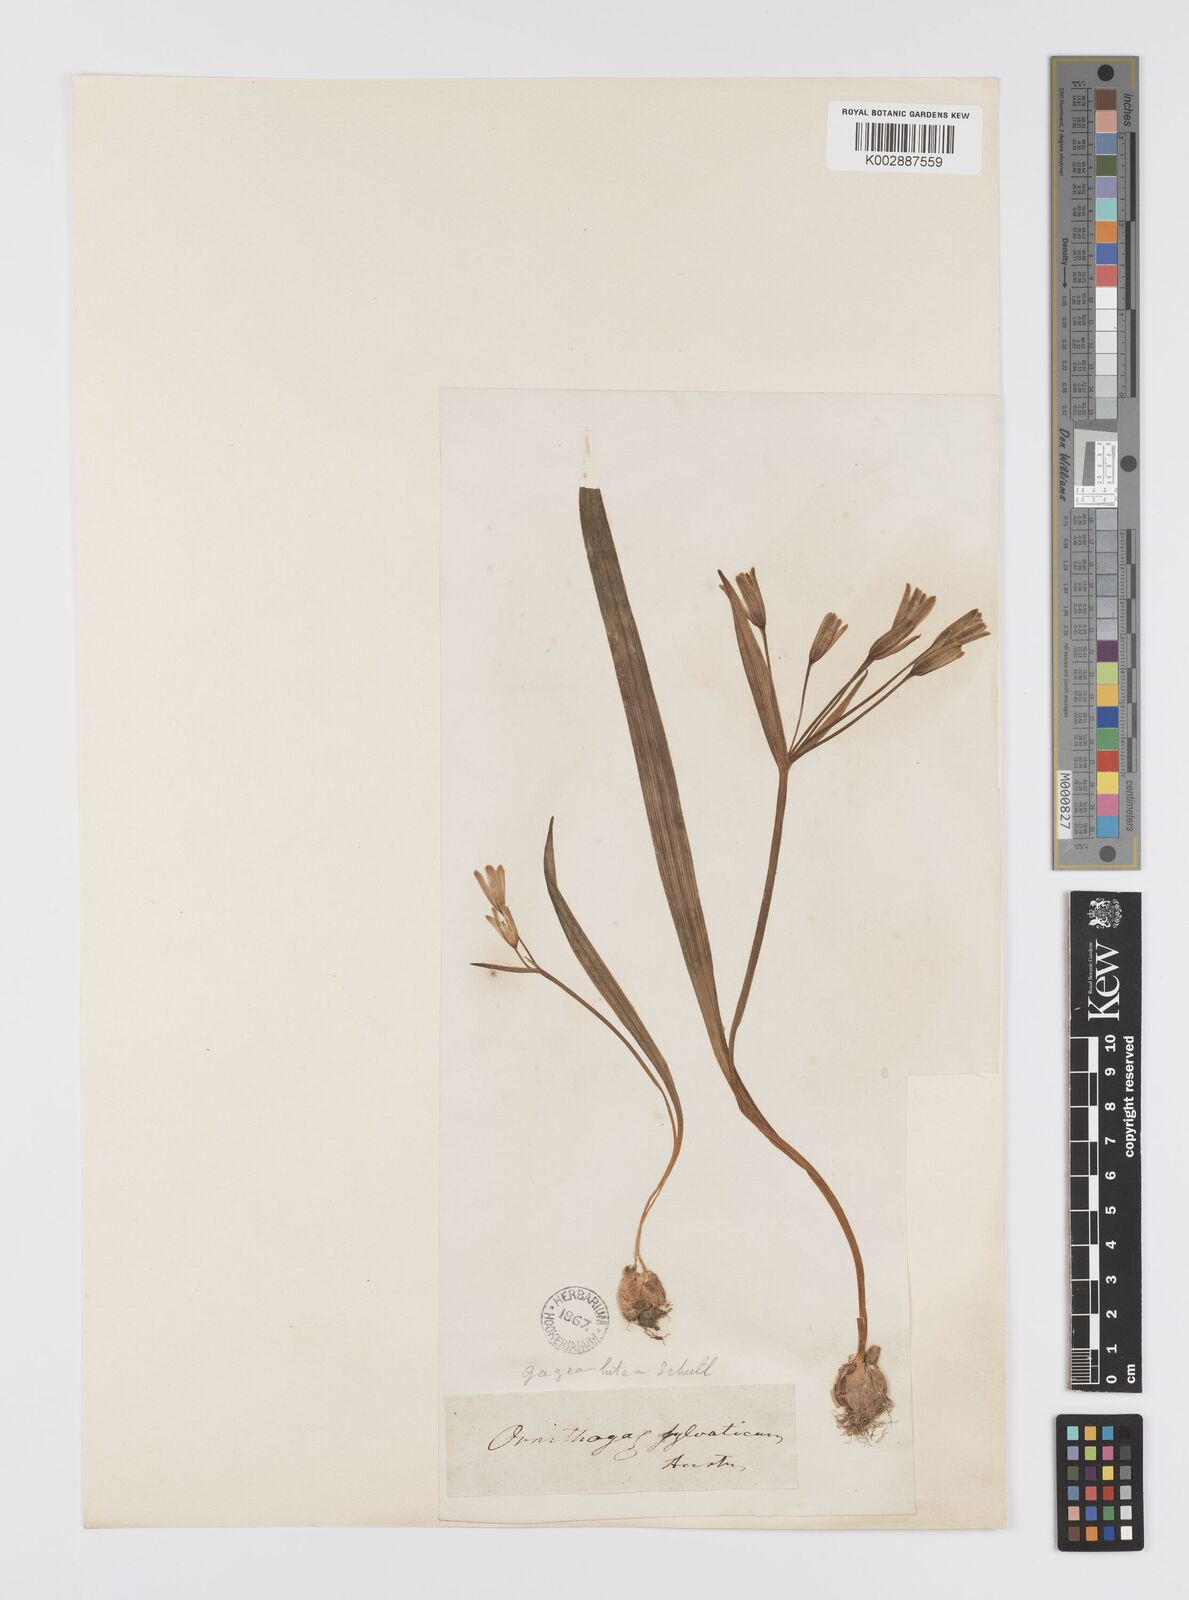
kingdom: Plantae
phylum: Tracheophyta
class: Liliopsida
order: Liliales
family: Liliaceae
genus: Gagea
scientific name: Gagea lutea
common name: Yellow star-of-bethlehem
